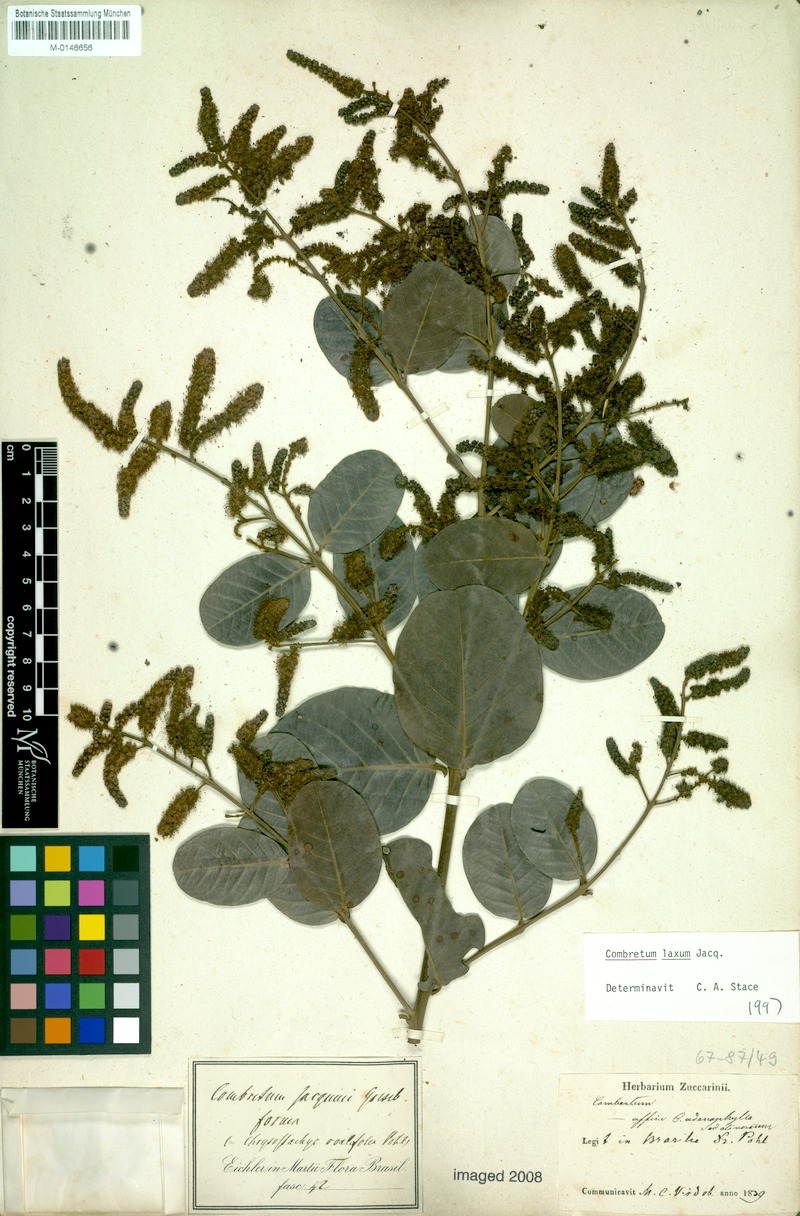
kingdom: Plantae
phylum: Tracheophyta
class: Magnoliopsida
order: Myrtales
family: Combretaceae
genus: Combretum
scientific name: Combretum laxum
